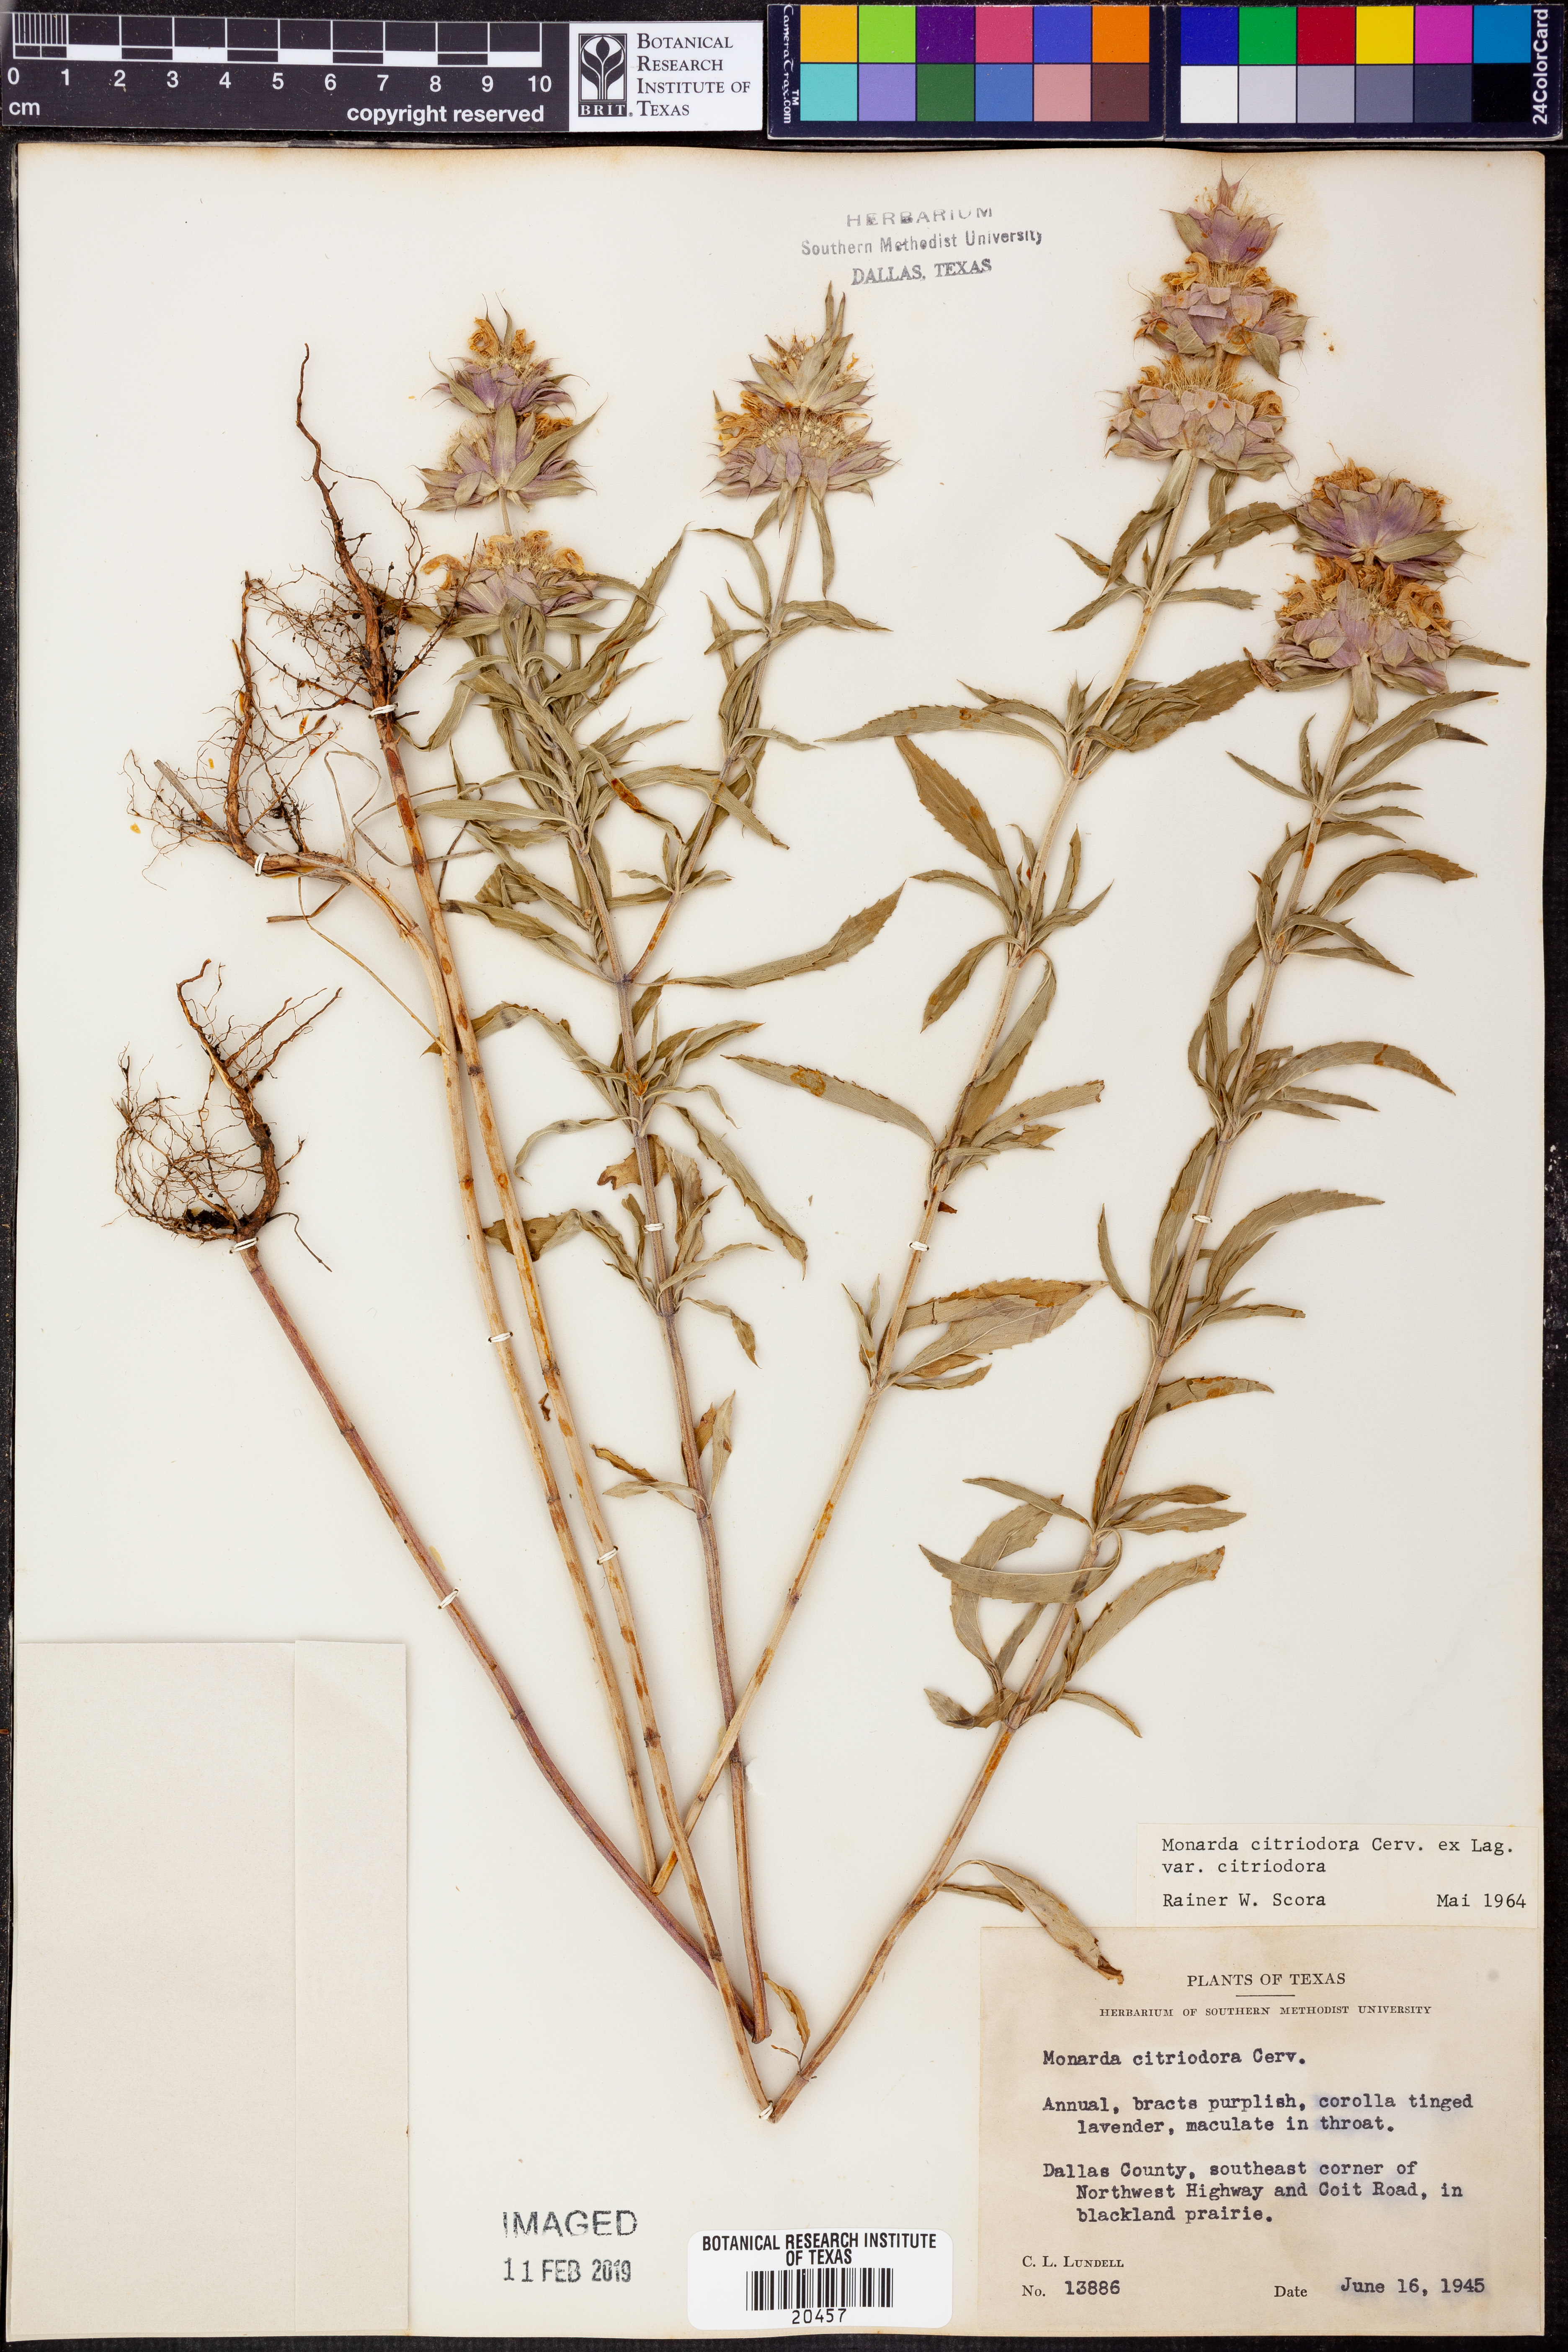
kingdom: Plantae
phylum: Tracheophyta
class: Magnoliopsida
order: Lamiales
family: Lamiaceae
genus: Monarda
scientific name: Monarda citriodora
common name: Lemon beebalm
